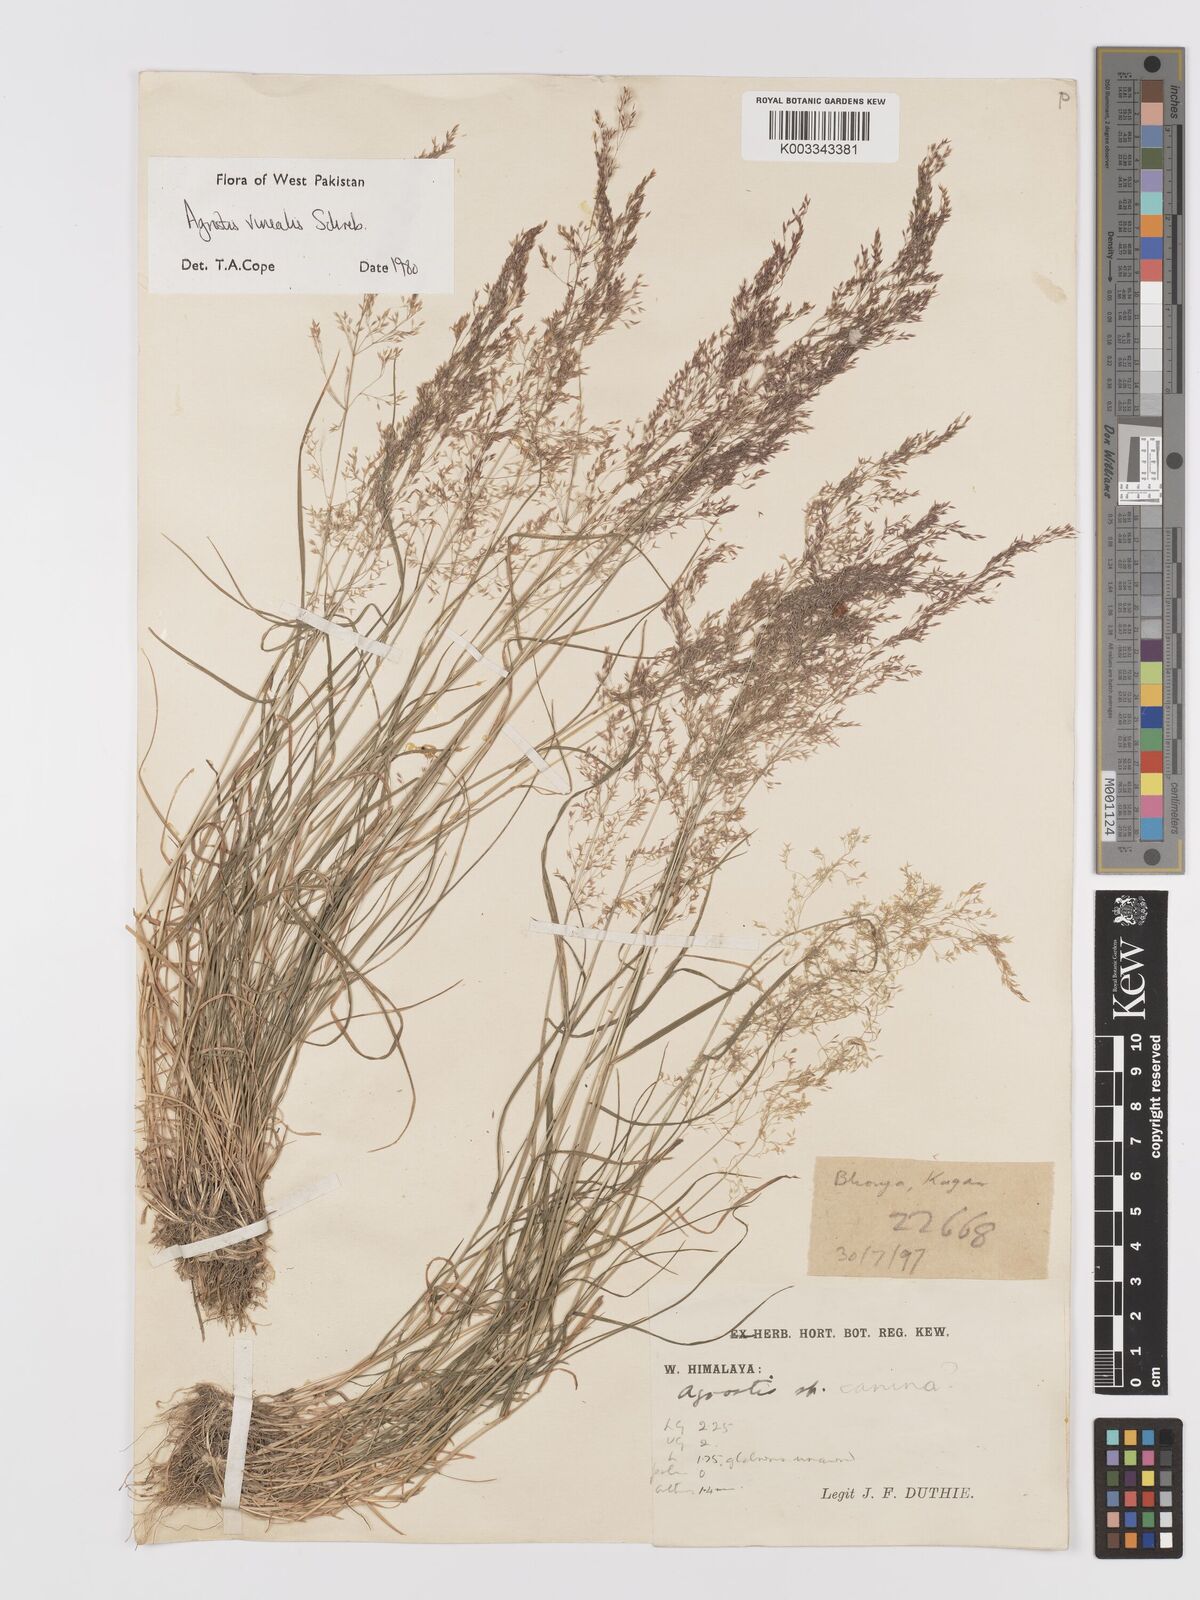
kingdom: Plantae
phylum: Tracheophyta
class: Liliopsida
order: Poales
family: Poaceae
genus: Agrostis
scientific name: Agrostis vinealis
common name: Brown bent
